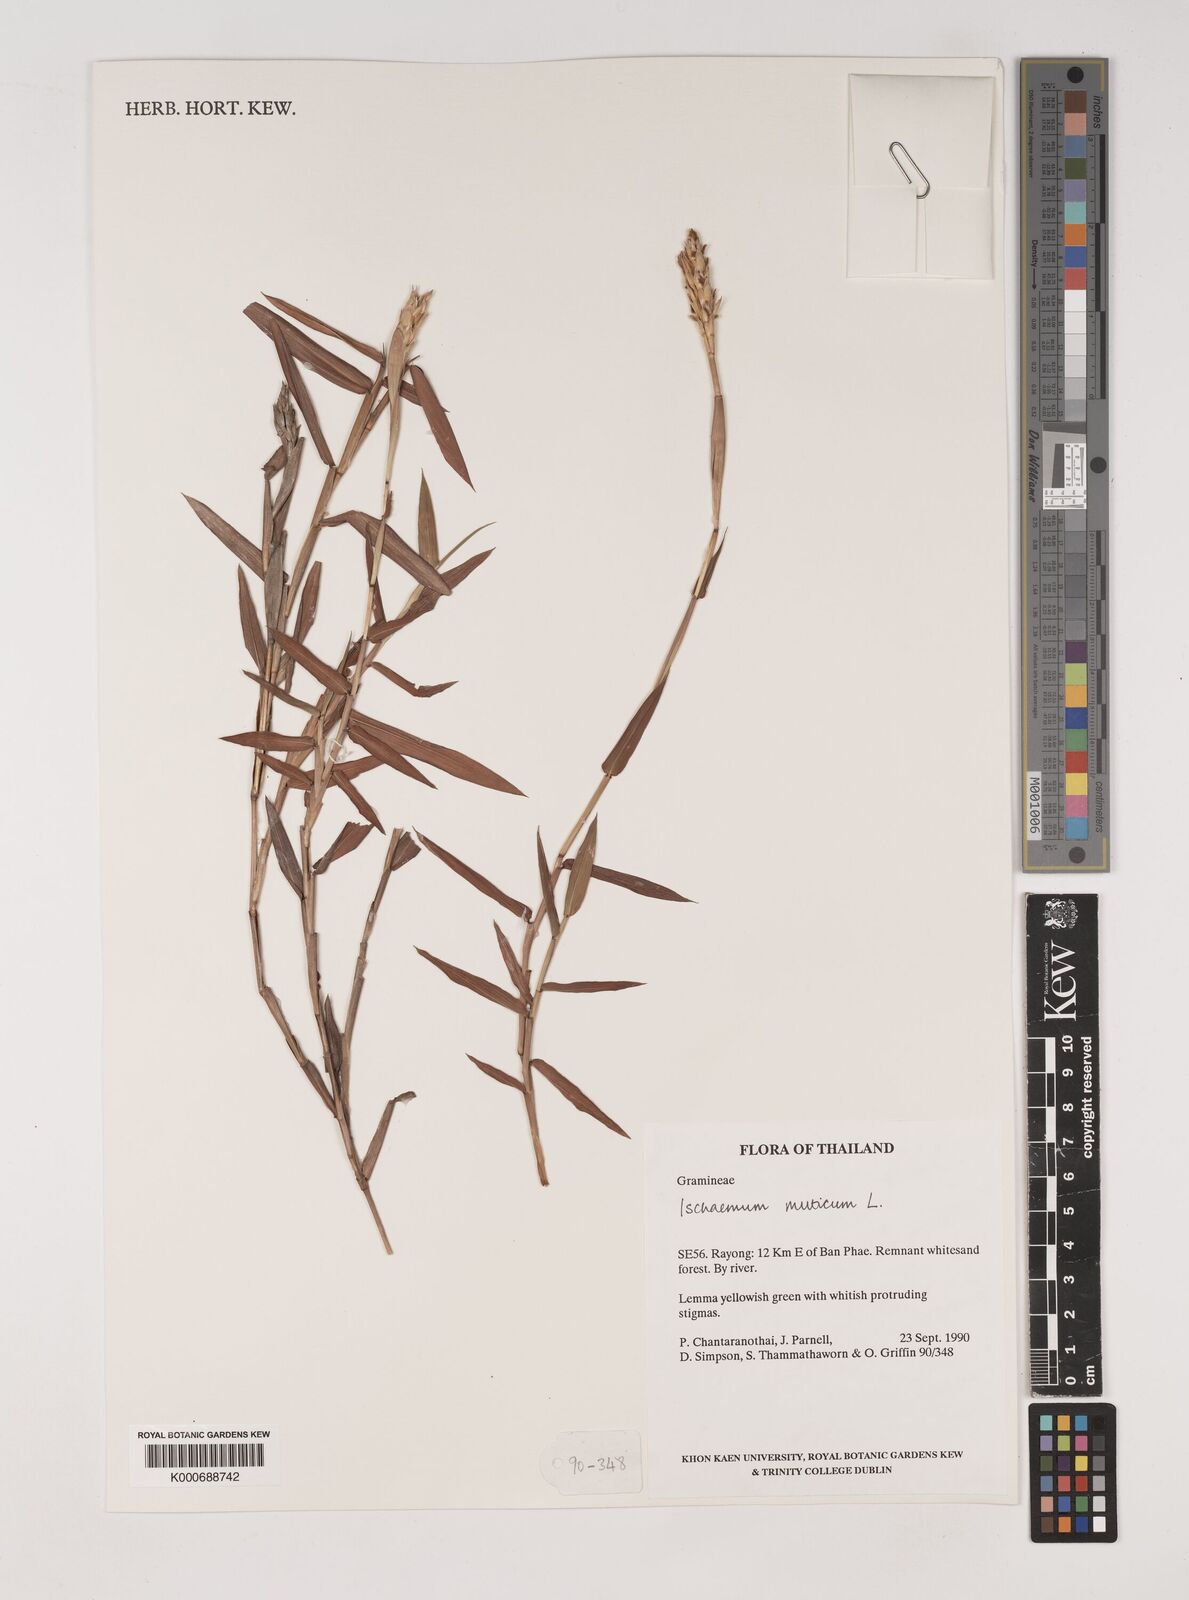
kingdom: Plantae
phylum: Tracheophyta
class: Liliopsida
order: Poales
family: Poaceae
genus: Ischaemum
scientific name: Ischaemum muticum
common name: Drought grass
